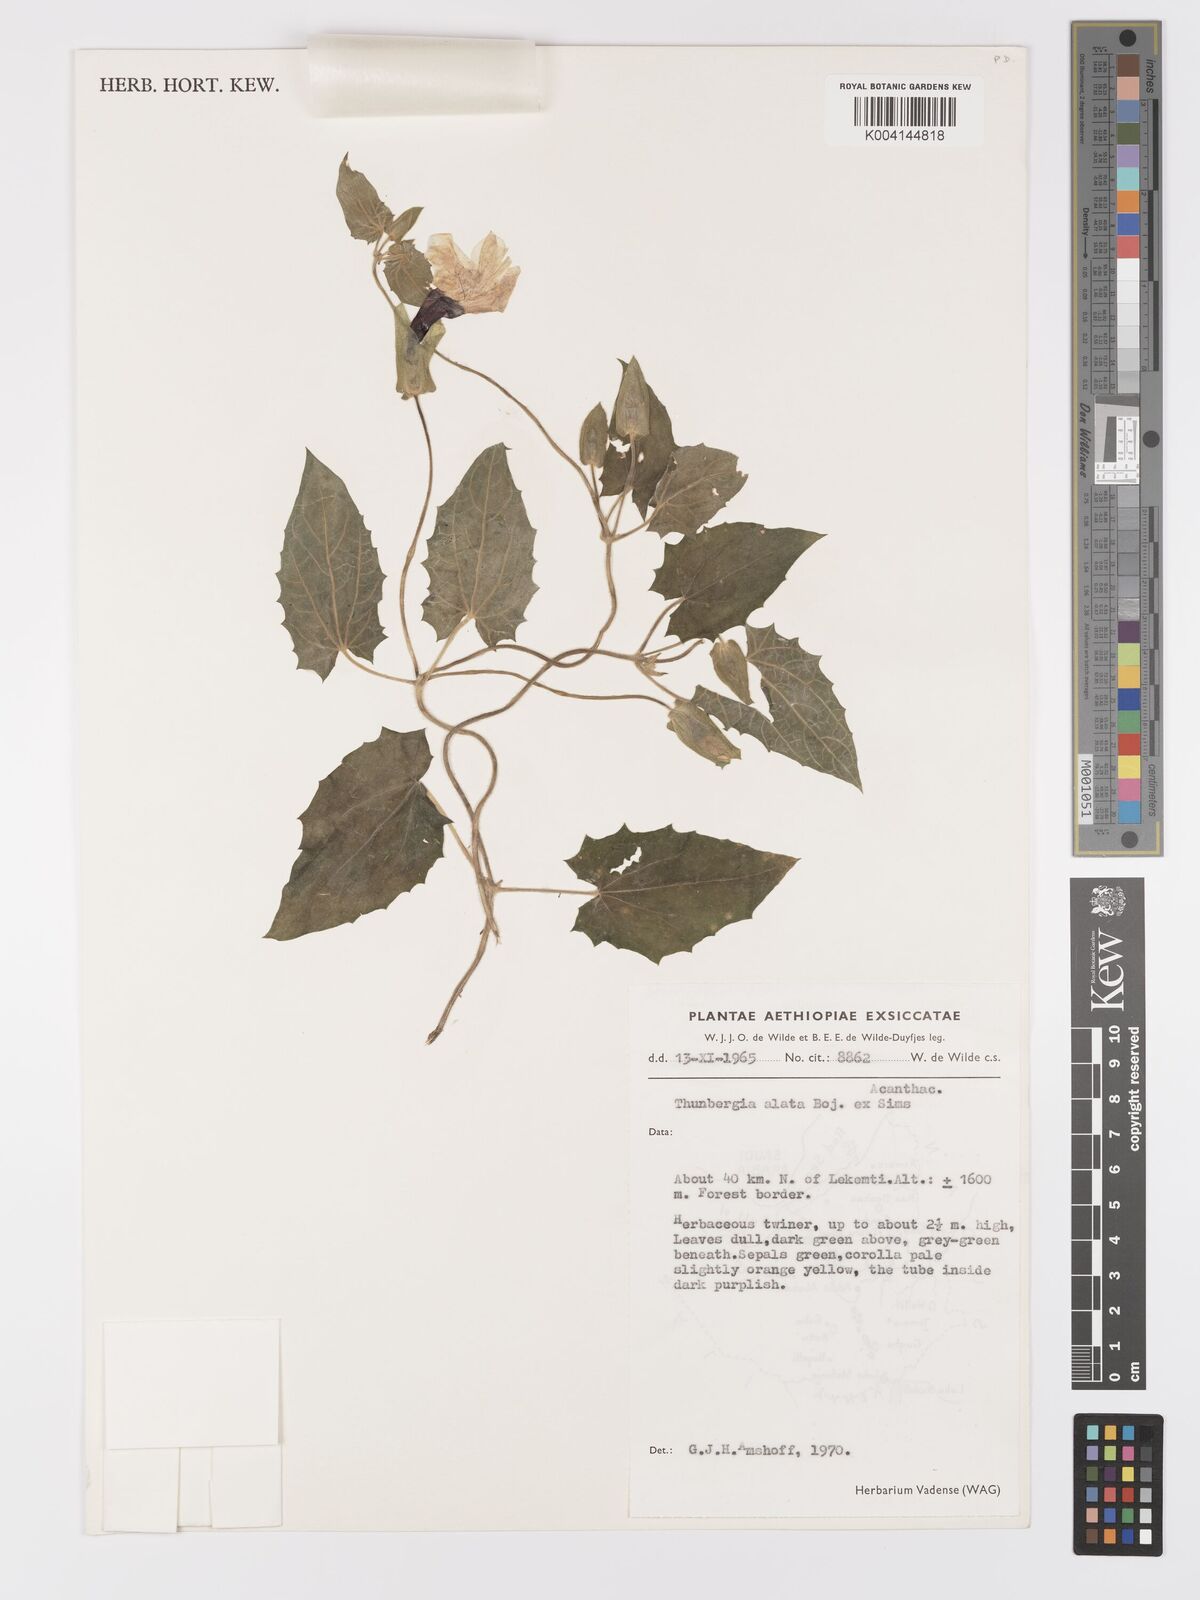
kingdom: Plantae
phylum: Tracheophyta
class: Magnoliopsida
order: Lamiales
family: Acanthaceae
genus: Thunbergia
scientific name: Thunbergia alata
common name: Blackeyed susan vine
